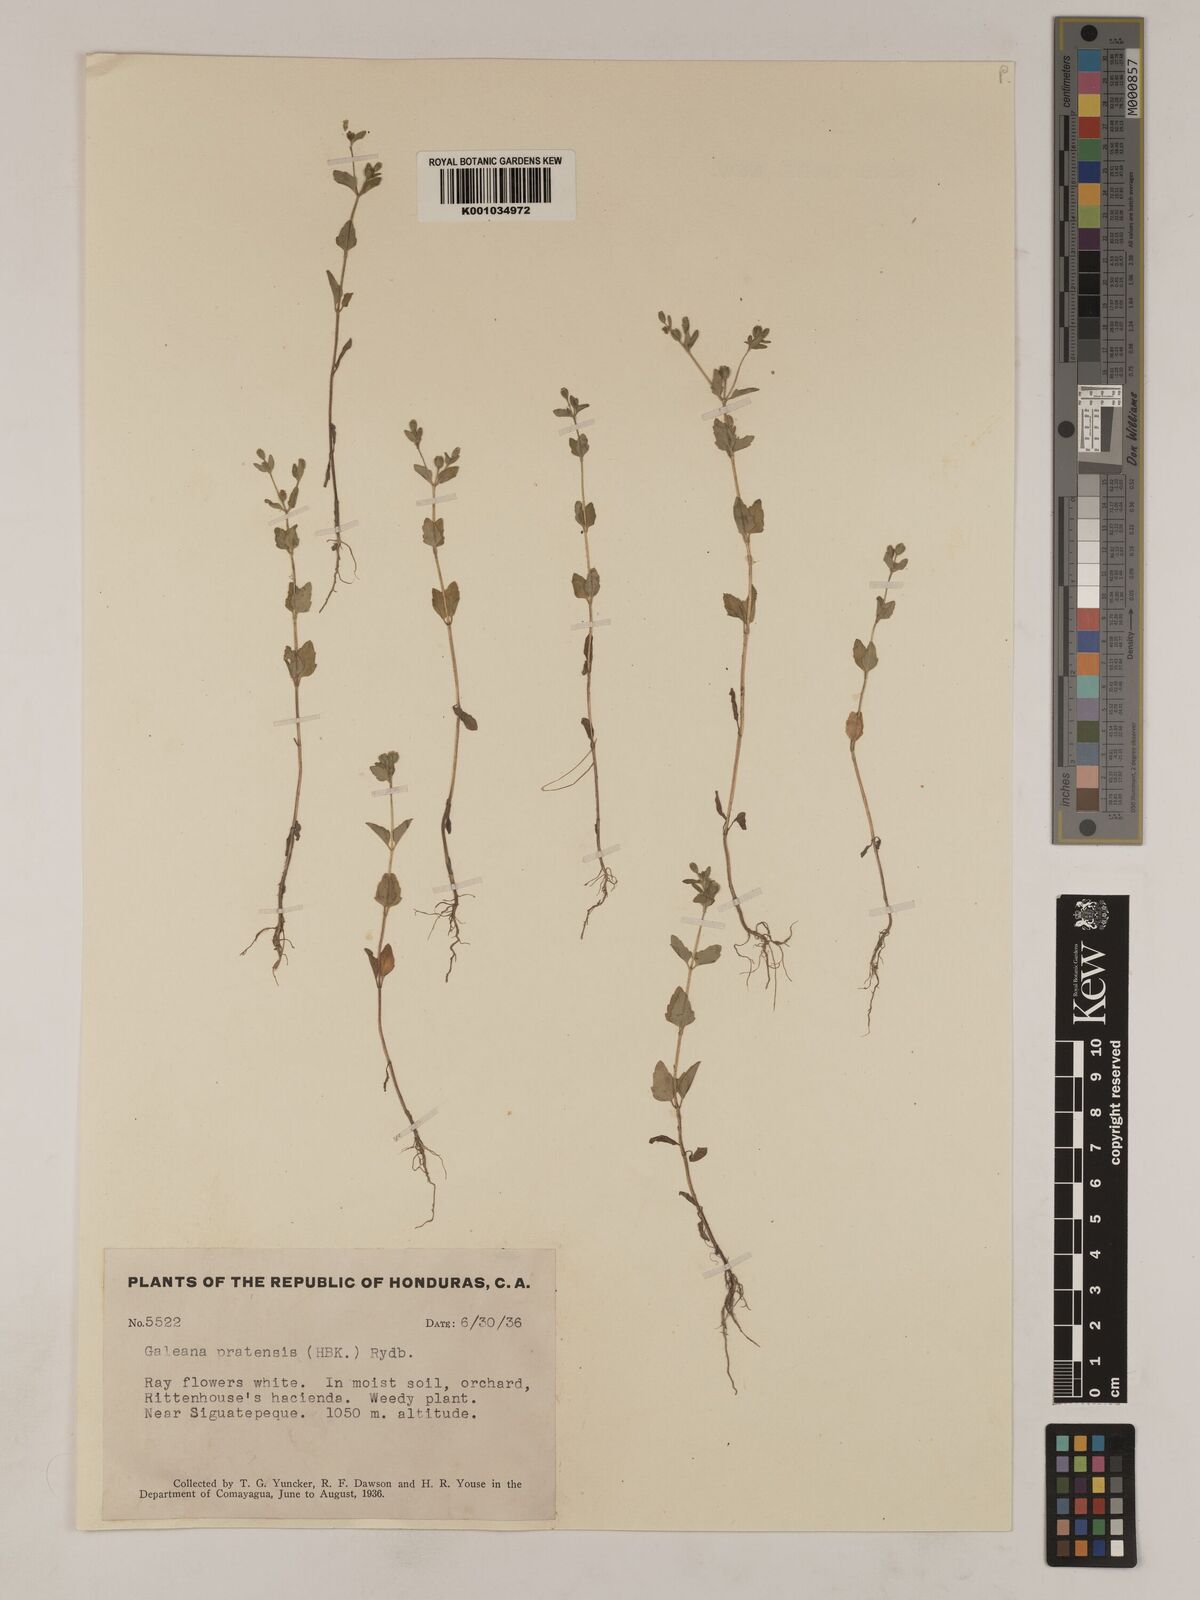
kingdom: Plantae
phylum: Tracheophyta
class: Magnoliopsida
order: Asterales
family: Asteraceae
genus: Galeana
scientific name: Galeana pratensis
